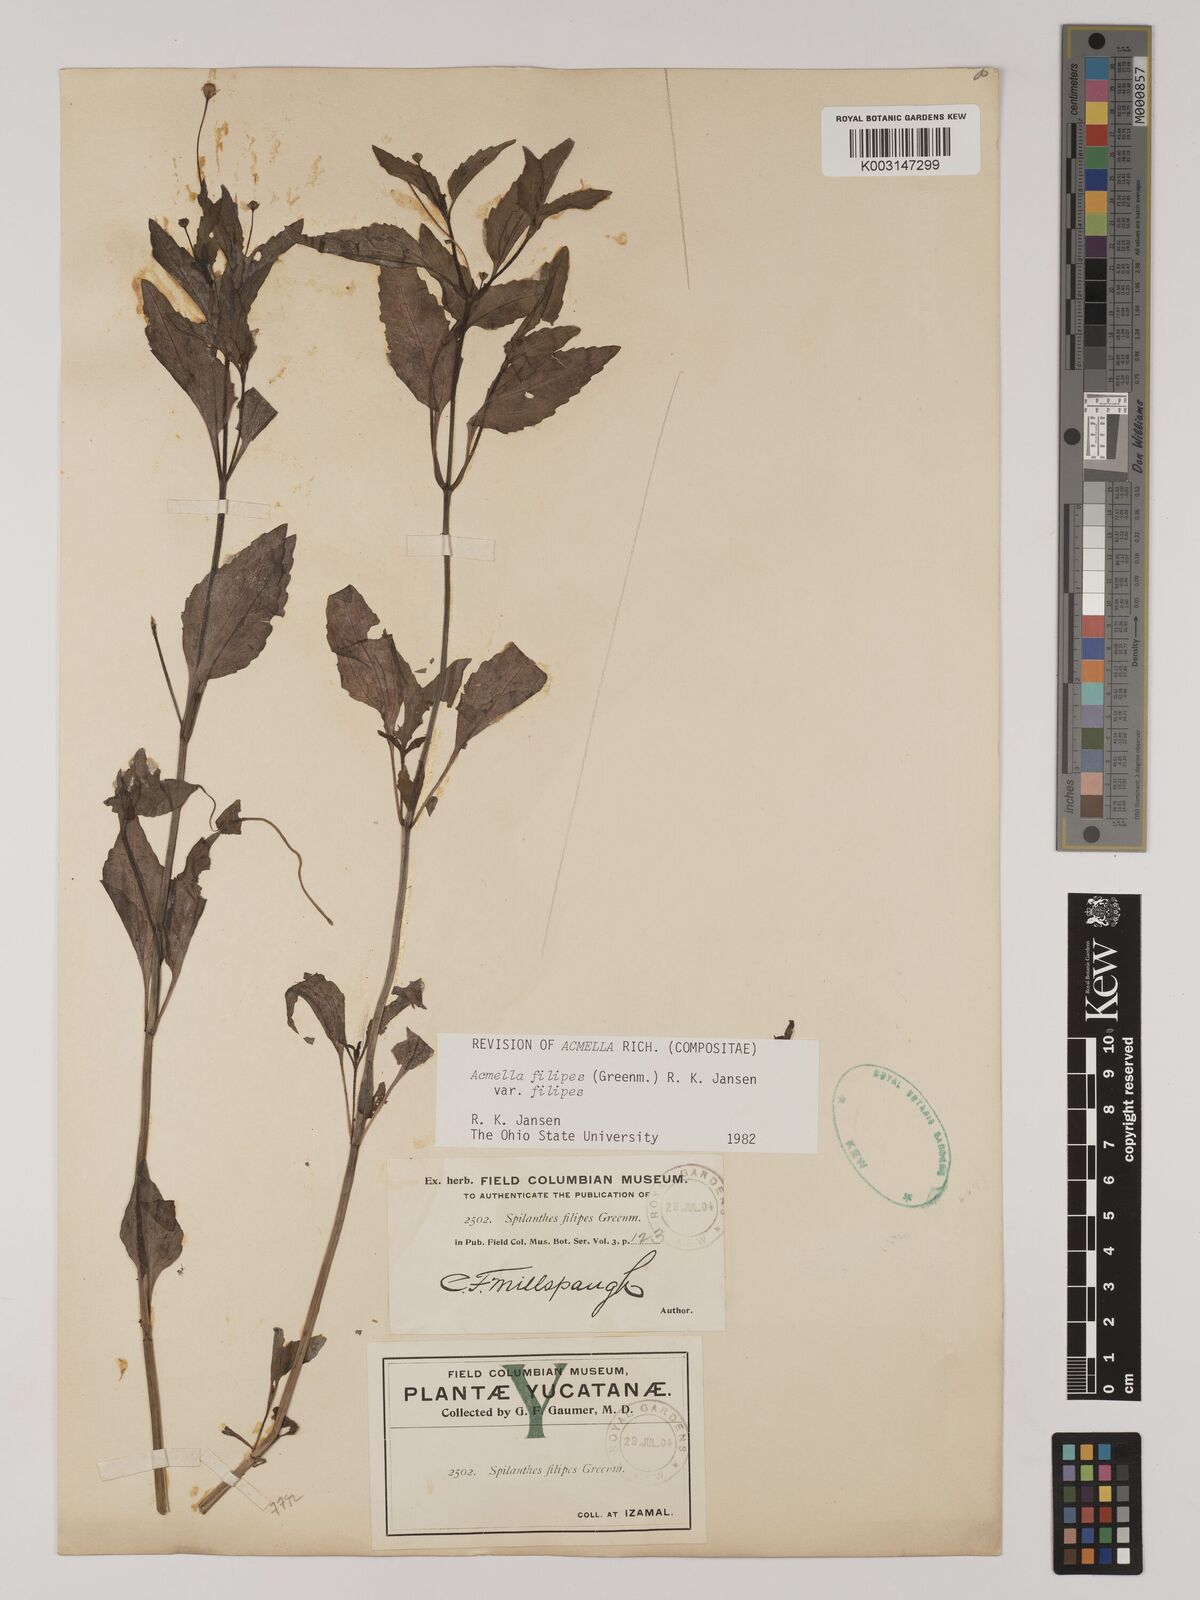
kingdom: Plantae
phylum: Tracheophyta
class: Magnoliopsida
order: Asterales
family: Asteraceae
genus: Acmella
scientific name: Acmella filipes
